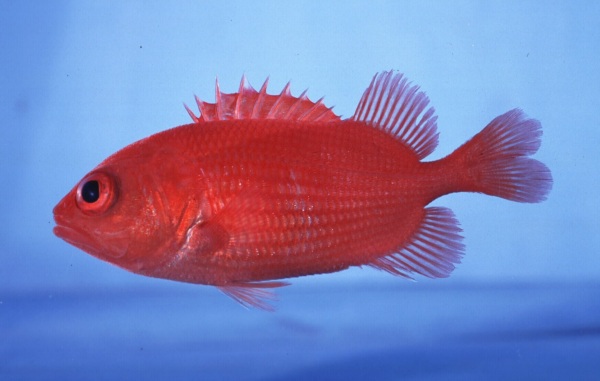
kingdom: Animalia
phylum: Chordata
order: Beryciformes
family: Holocentridae
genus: Plectrypops
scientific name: Plectrypops lima
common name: Cardinal soldierfish
